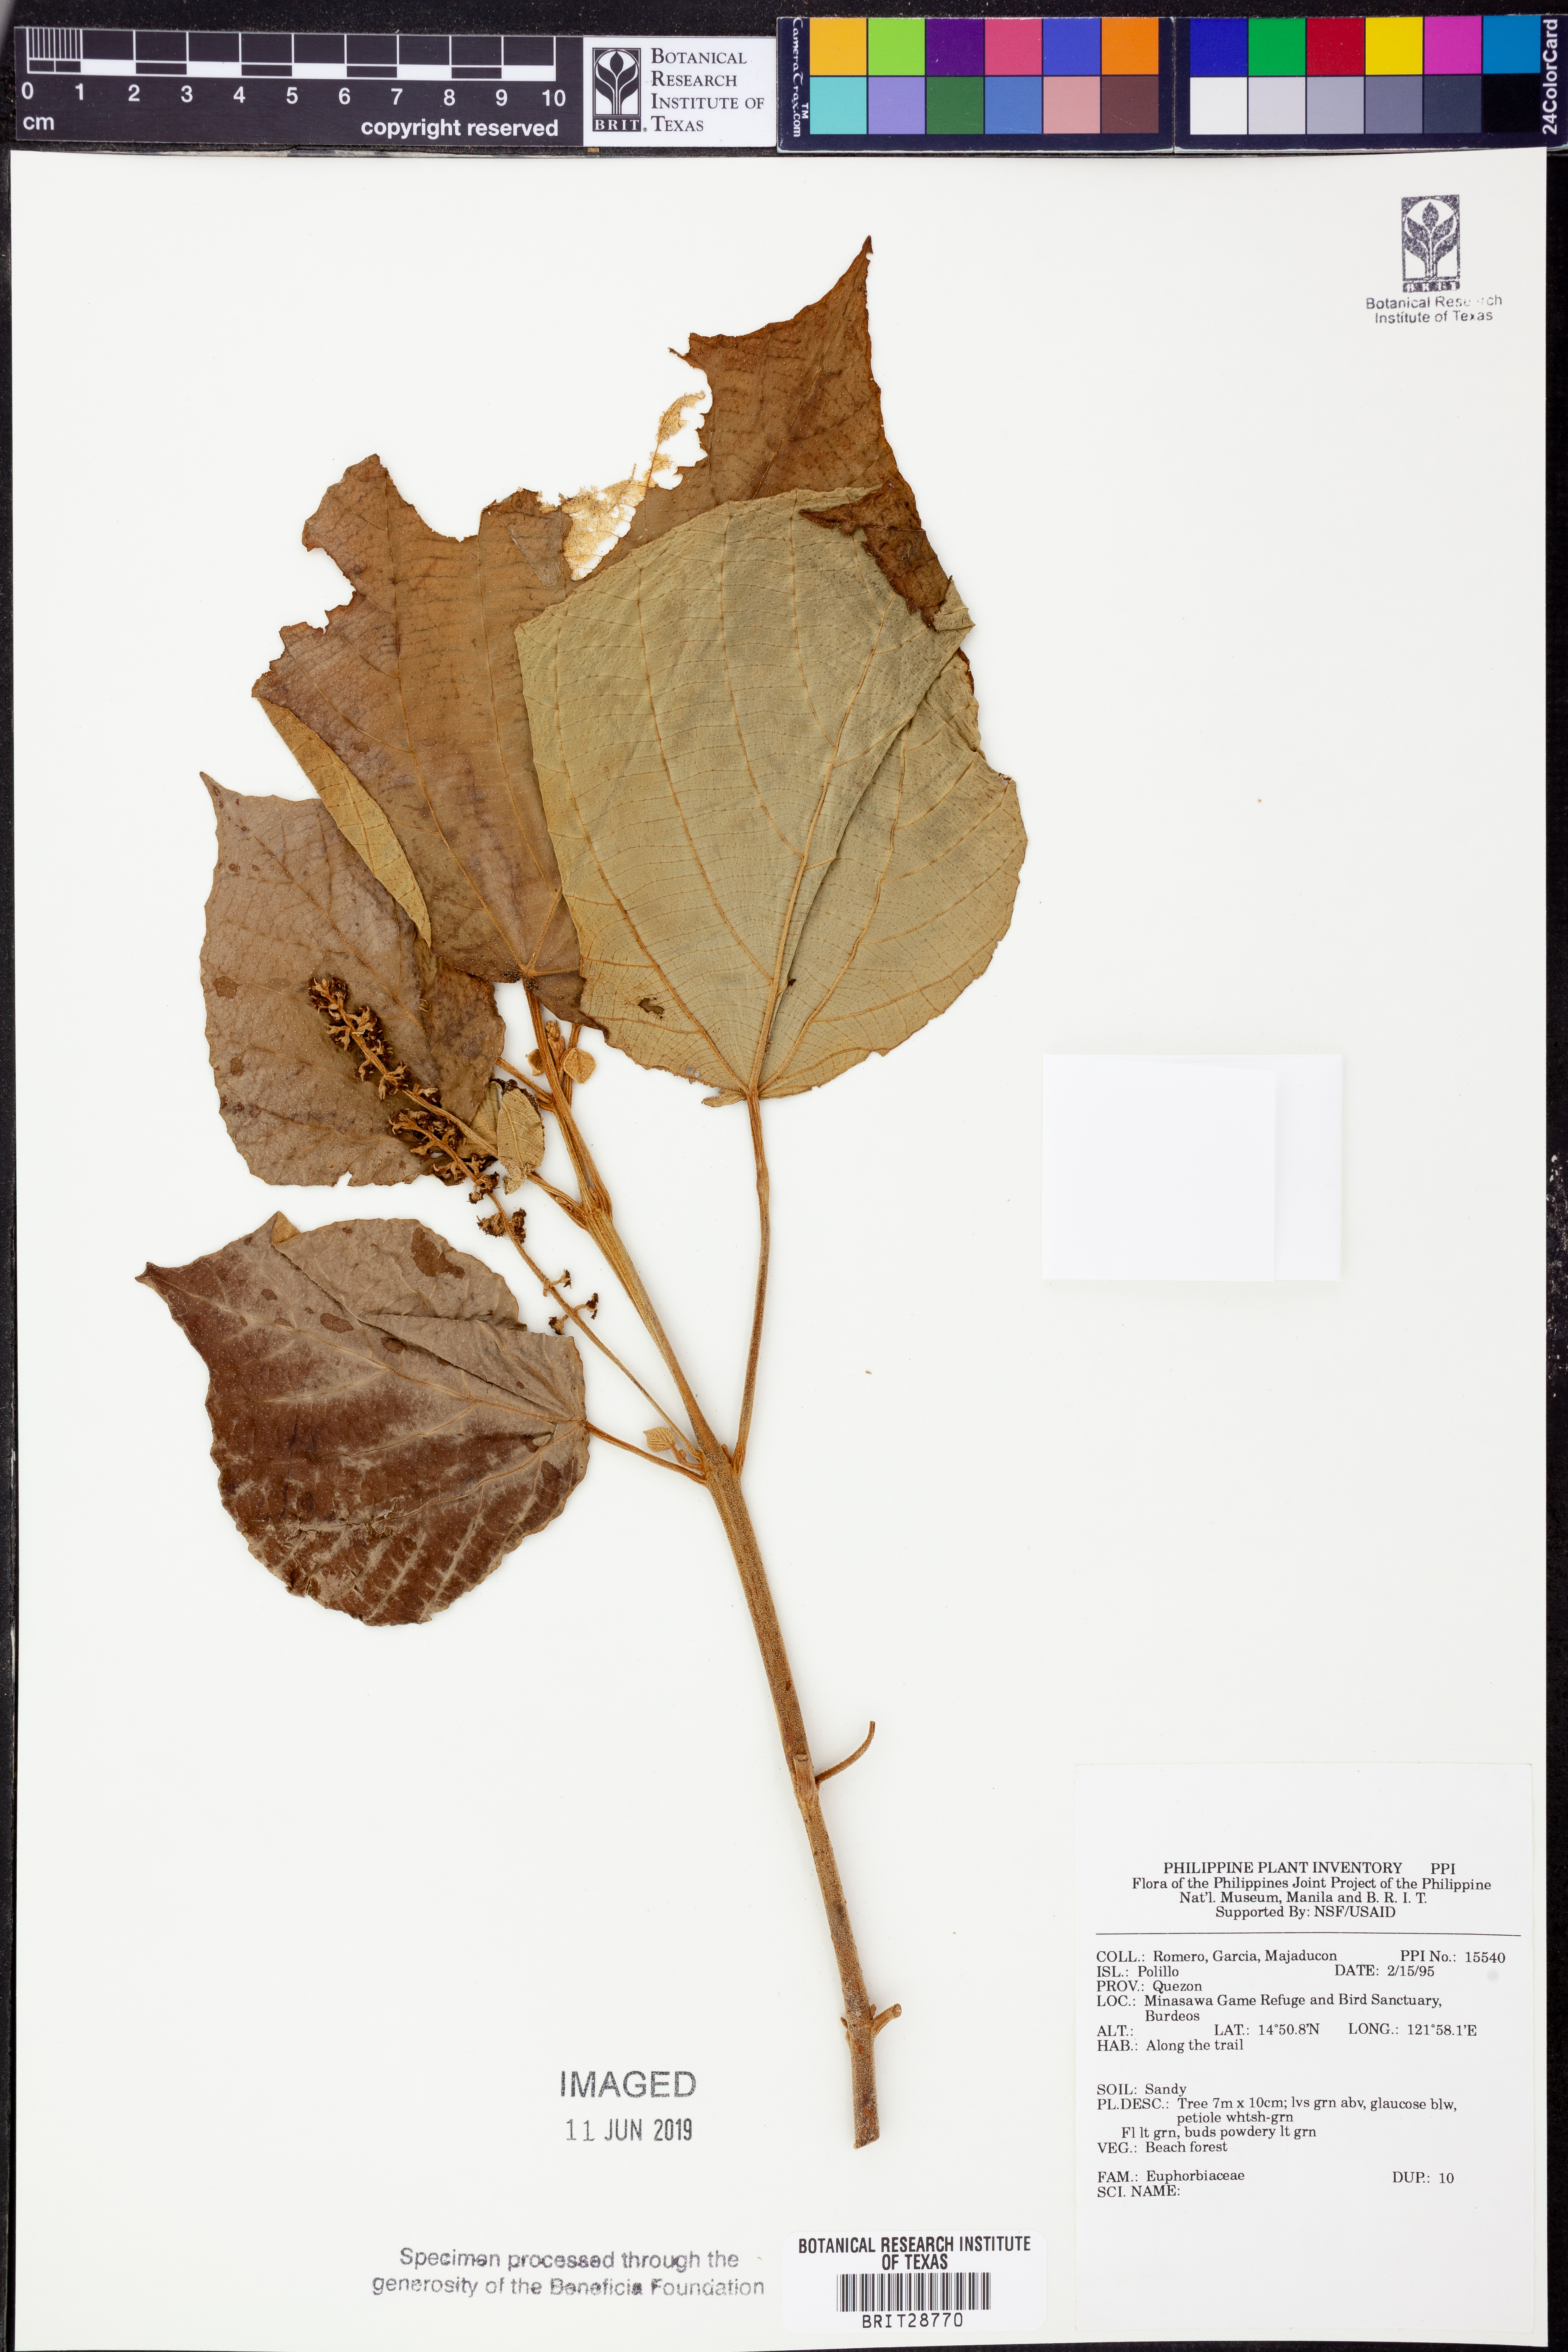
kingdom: Plantae
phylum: Tracheophyta
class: Magnoliopsida
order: Malpighiales
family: Euphorbiaceae
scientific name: Euphorbiaceae
